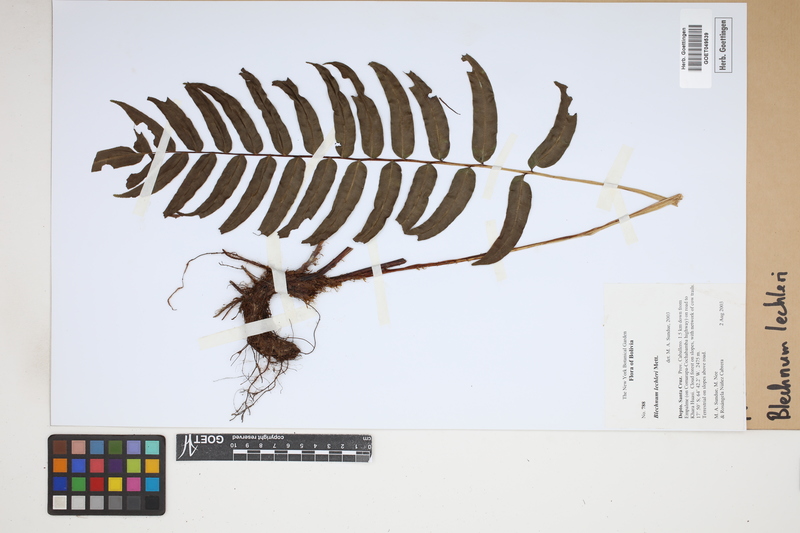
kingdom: Plantae
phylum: Tracheophyta
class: Polypodiopsida
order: Polypodiales
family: Blechnaceae
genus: Parablechnum
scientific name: Parablechnum lechleri
